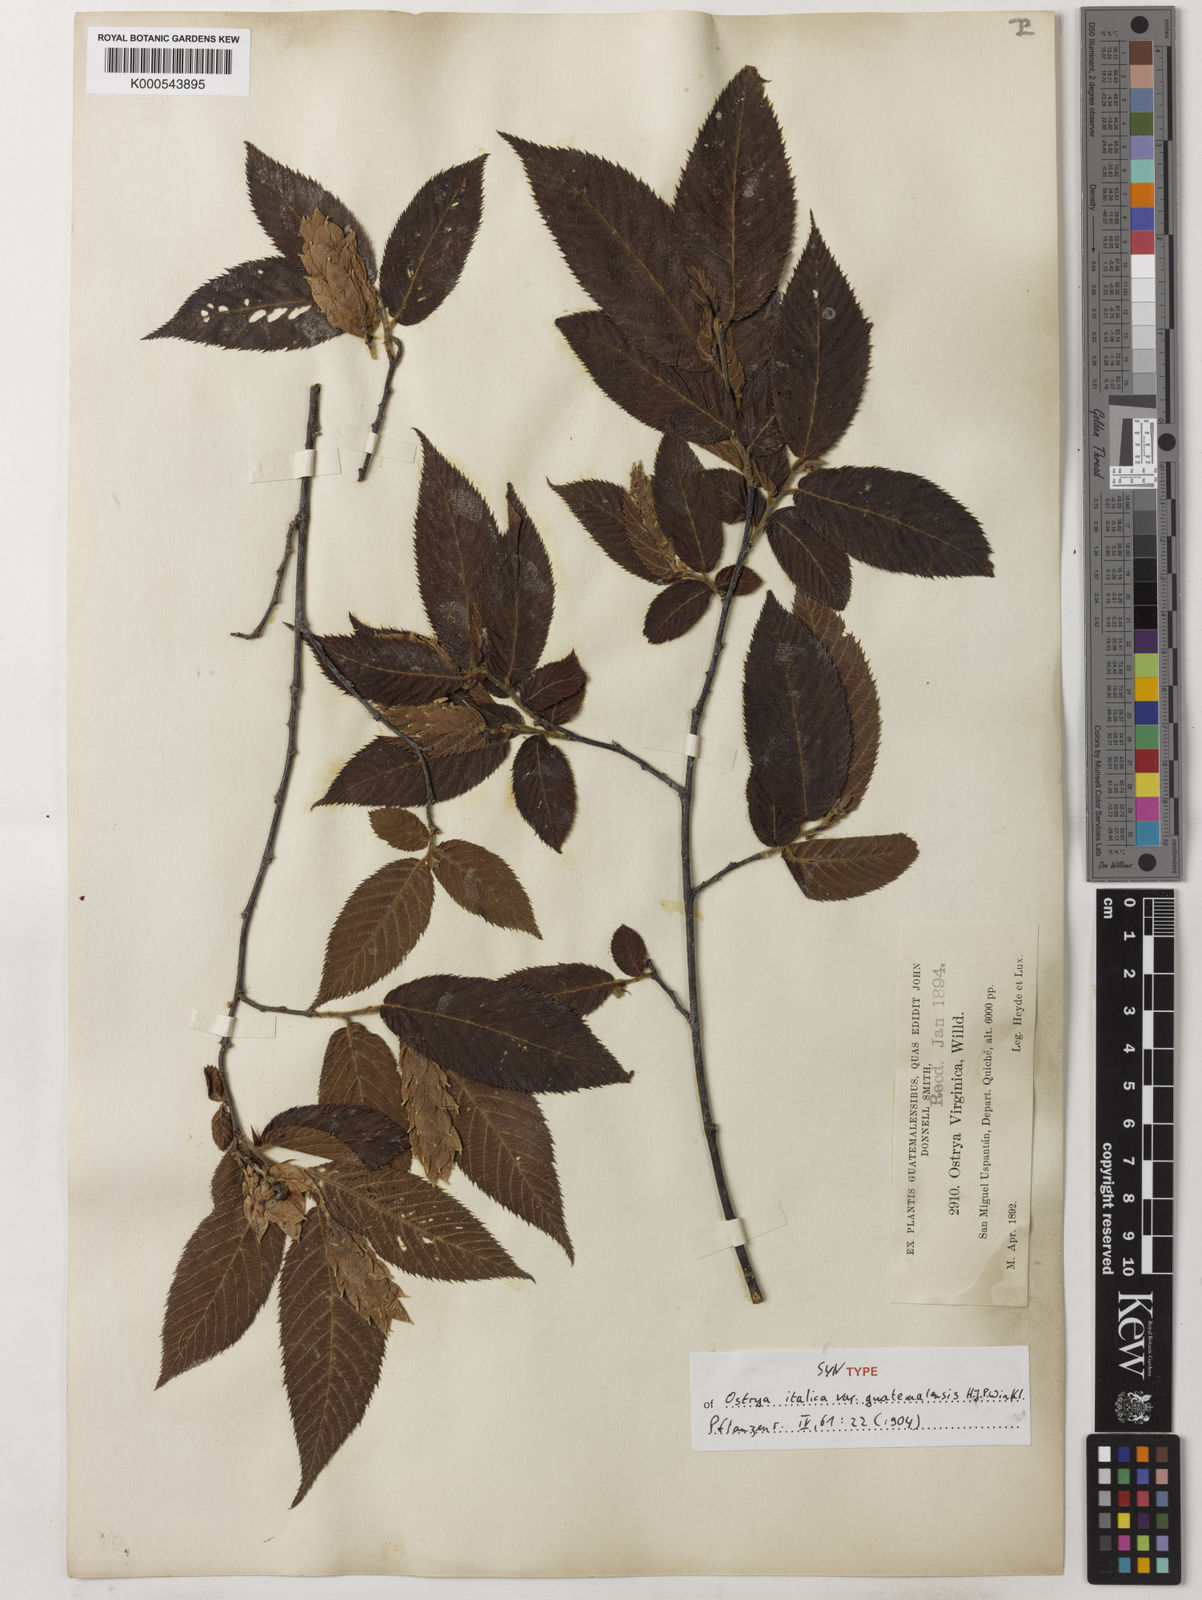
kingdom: Plantae
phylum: Tracheophyta
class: Magnoliopsida
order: Fagales
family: Betulaceae
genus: Ostrya
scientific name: Ostrya virginiana
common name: Ironwood
